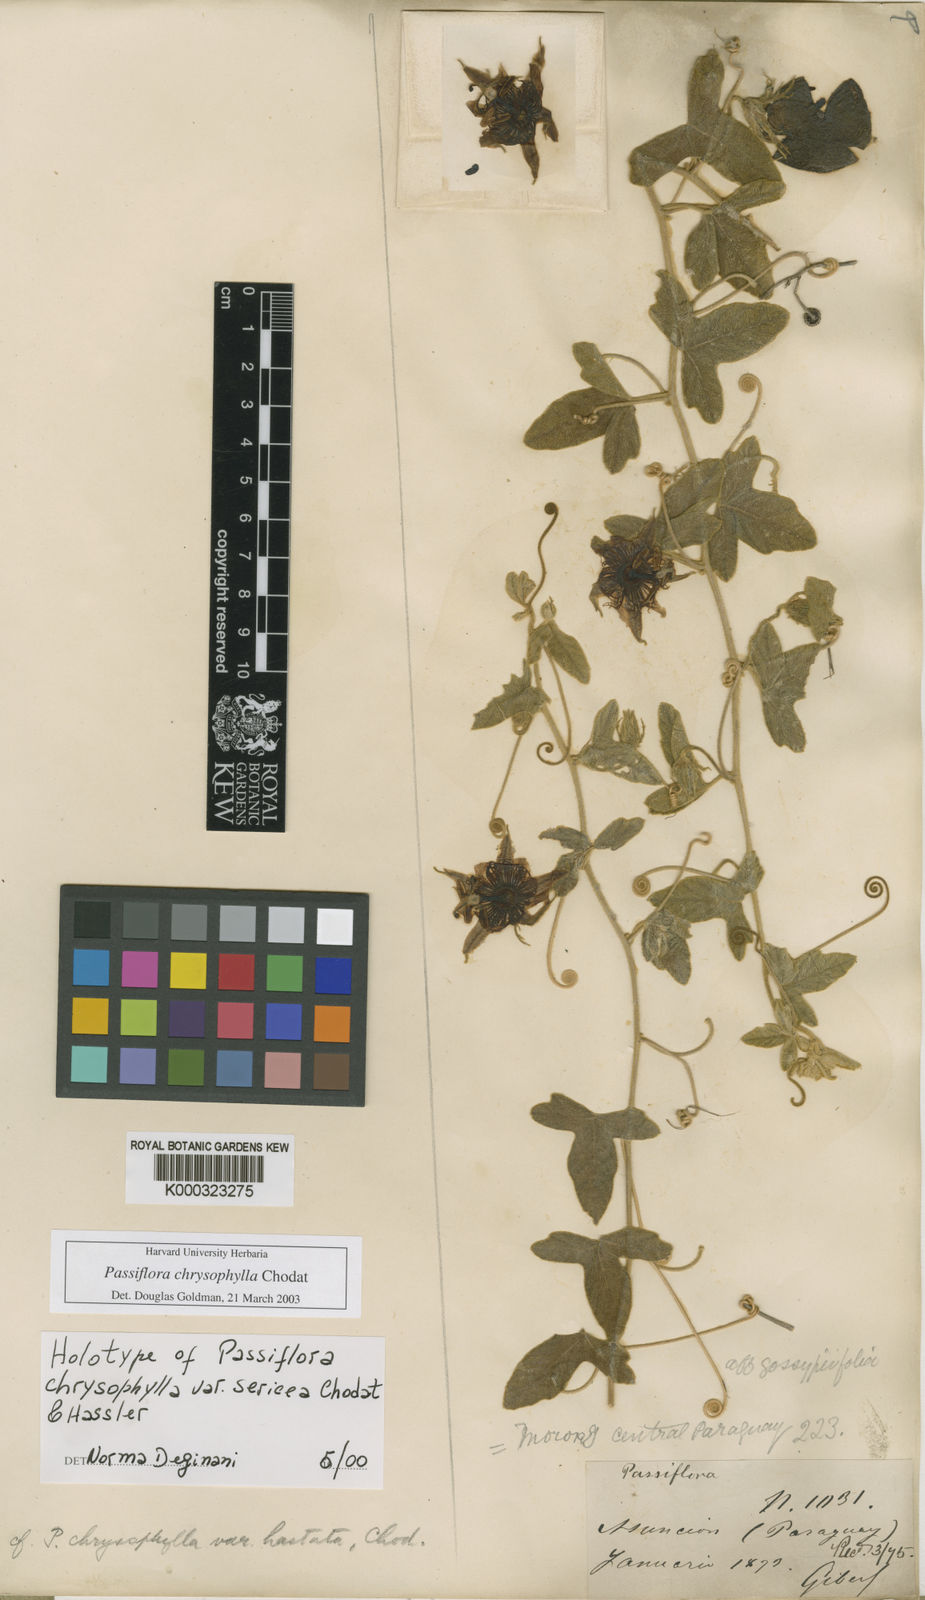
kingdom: Plantae
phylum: Tracheophyta
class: Magnoliopsida
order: Malpighiales
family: Passifloraceae
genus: Passiflora
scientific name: Passiflora chrysophylla
